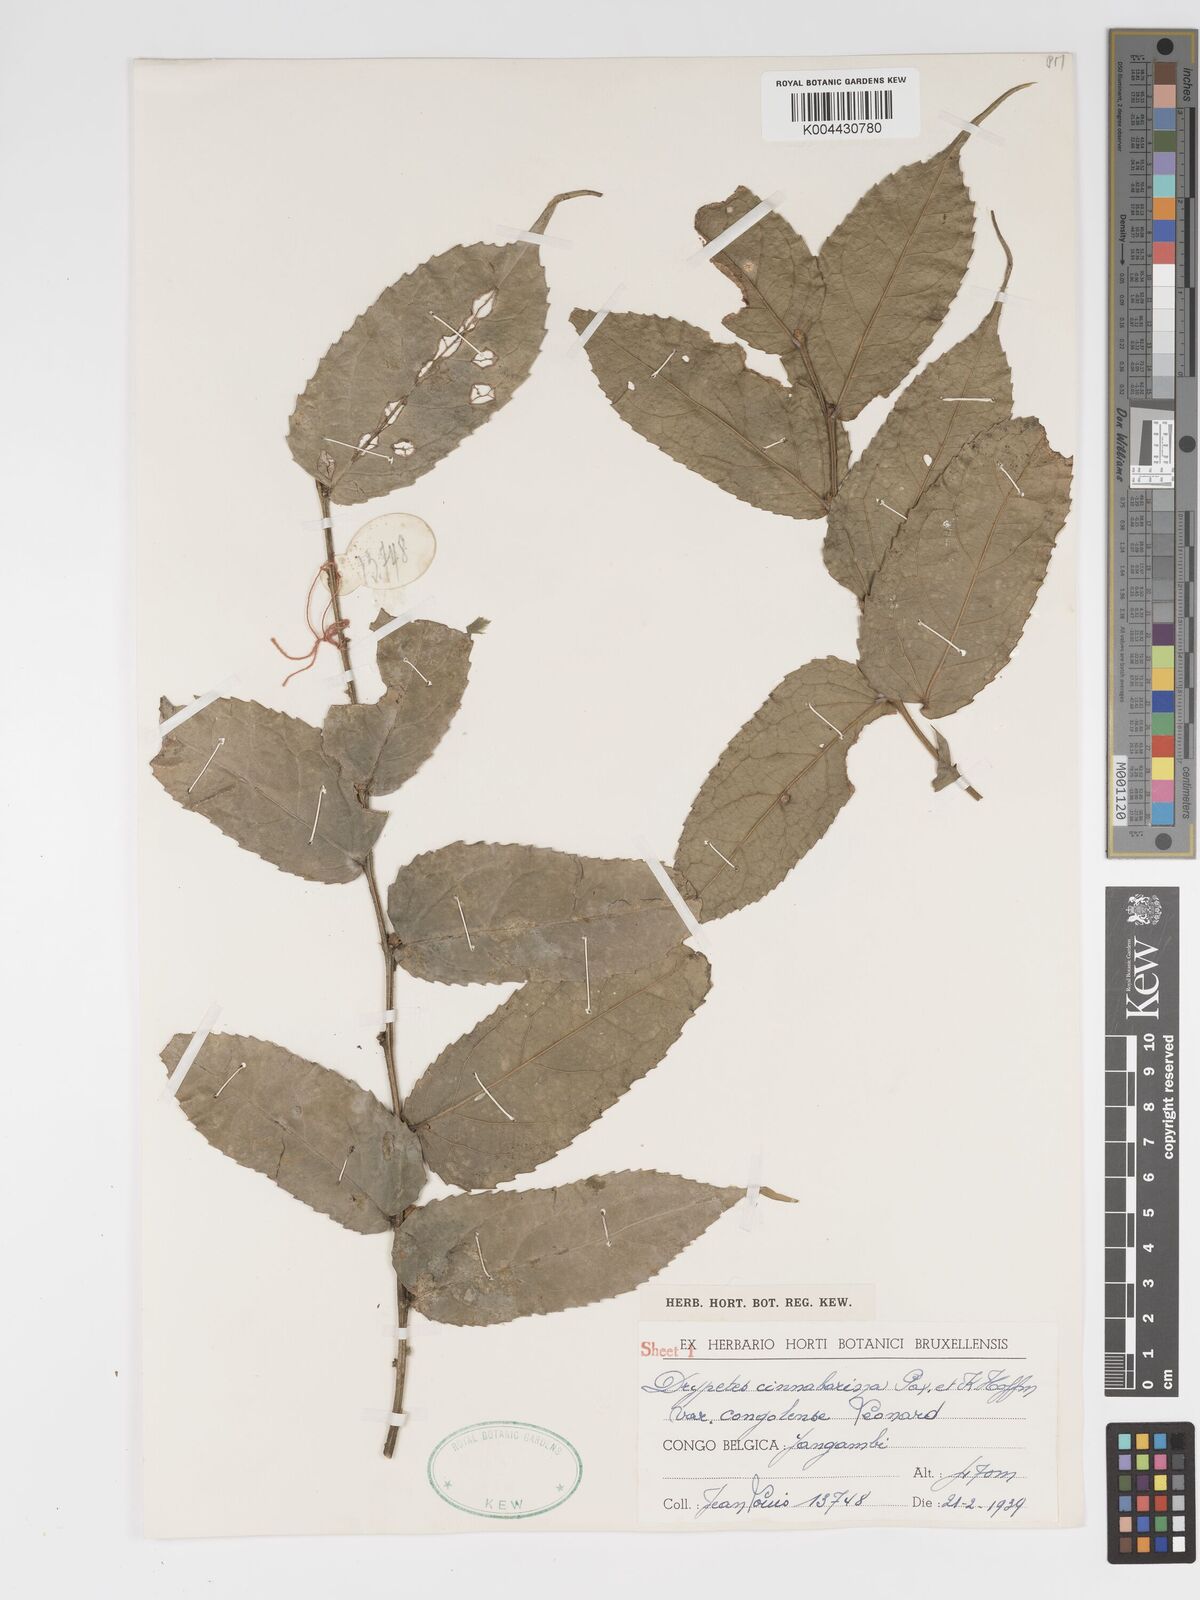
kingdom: Plantae
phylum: Tracheophyta
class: Magnoliopsida
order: Malpighiales
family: Putranjivaceae
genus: Drypetes
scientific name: Drypetes cinnabarina
